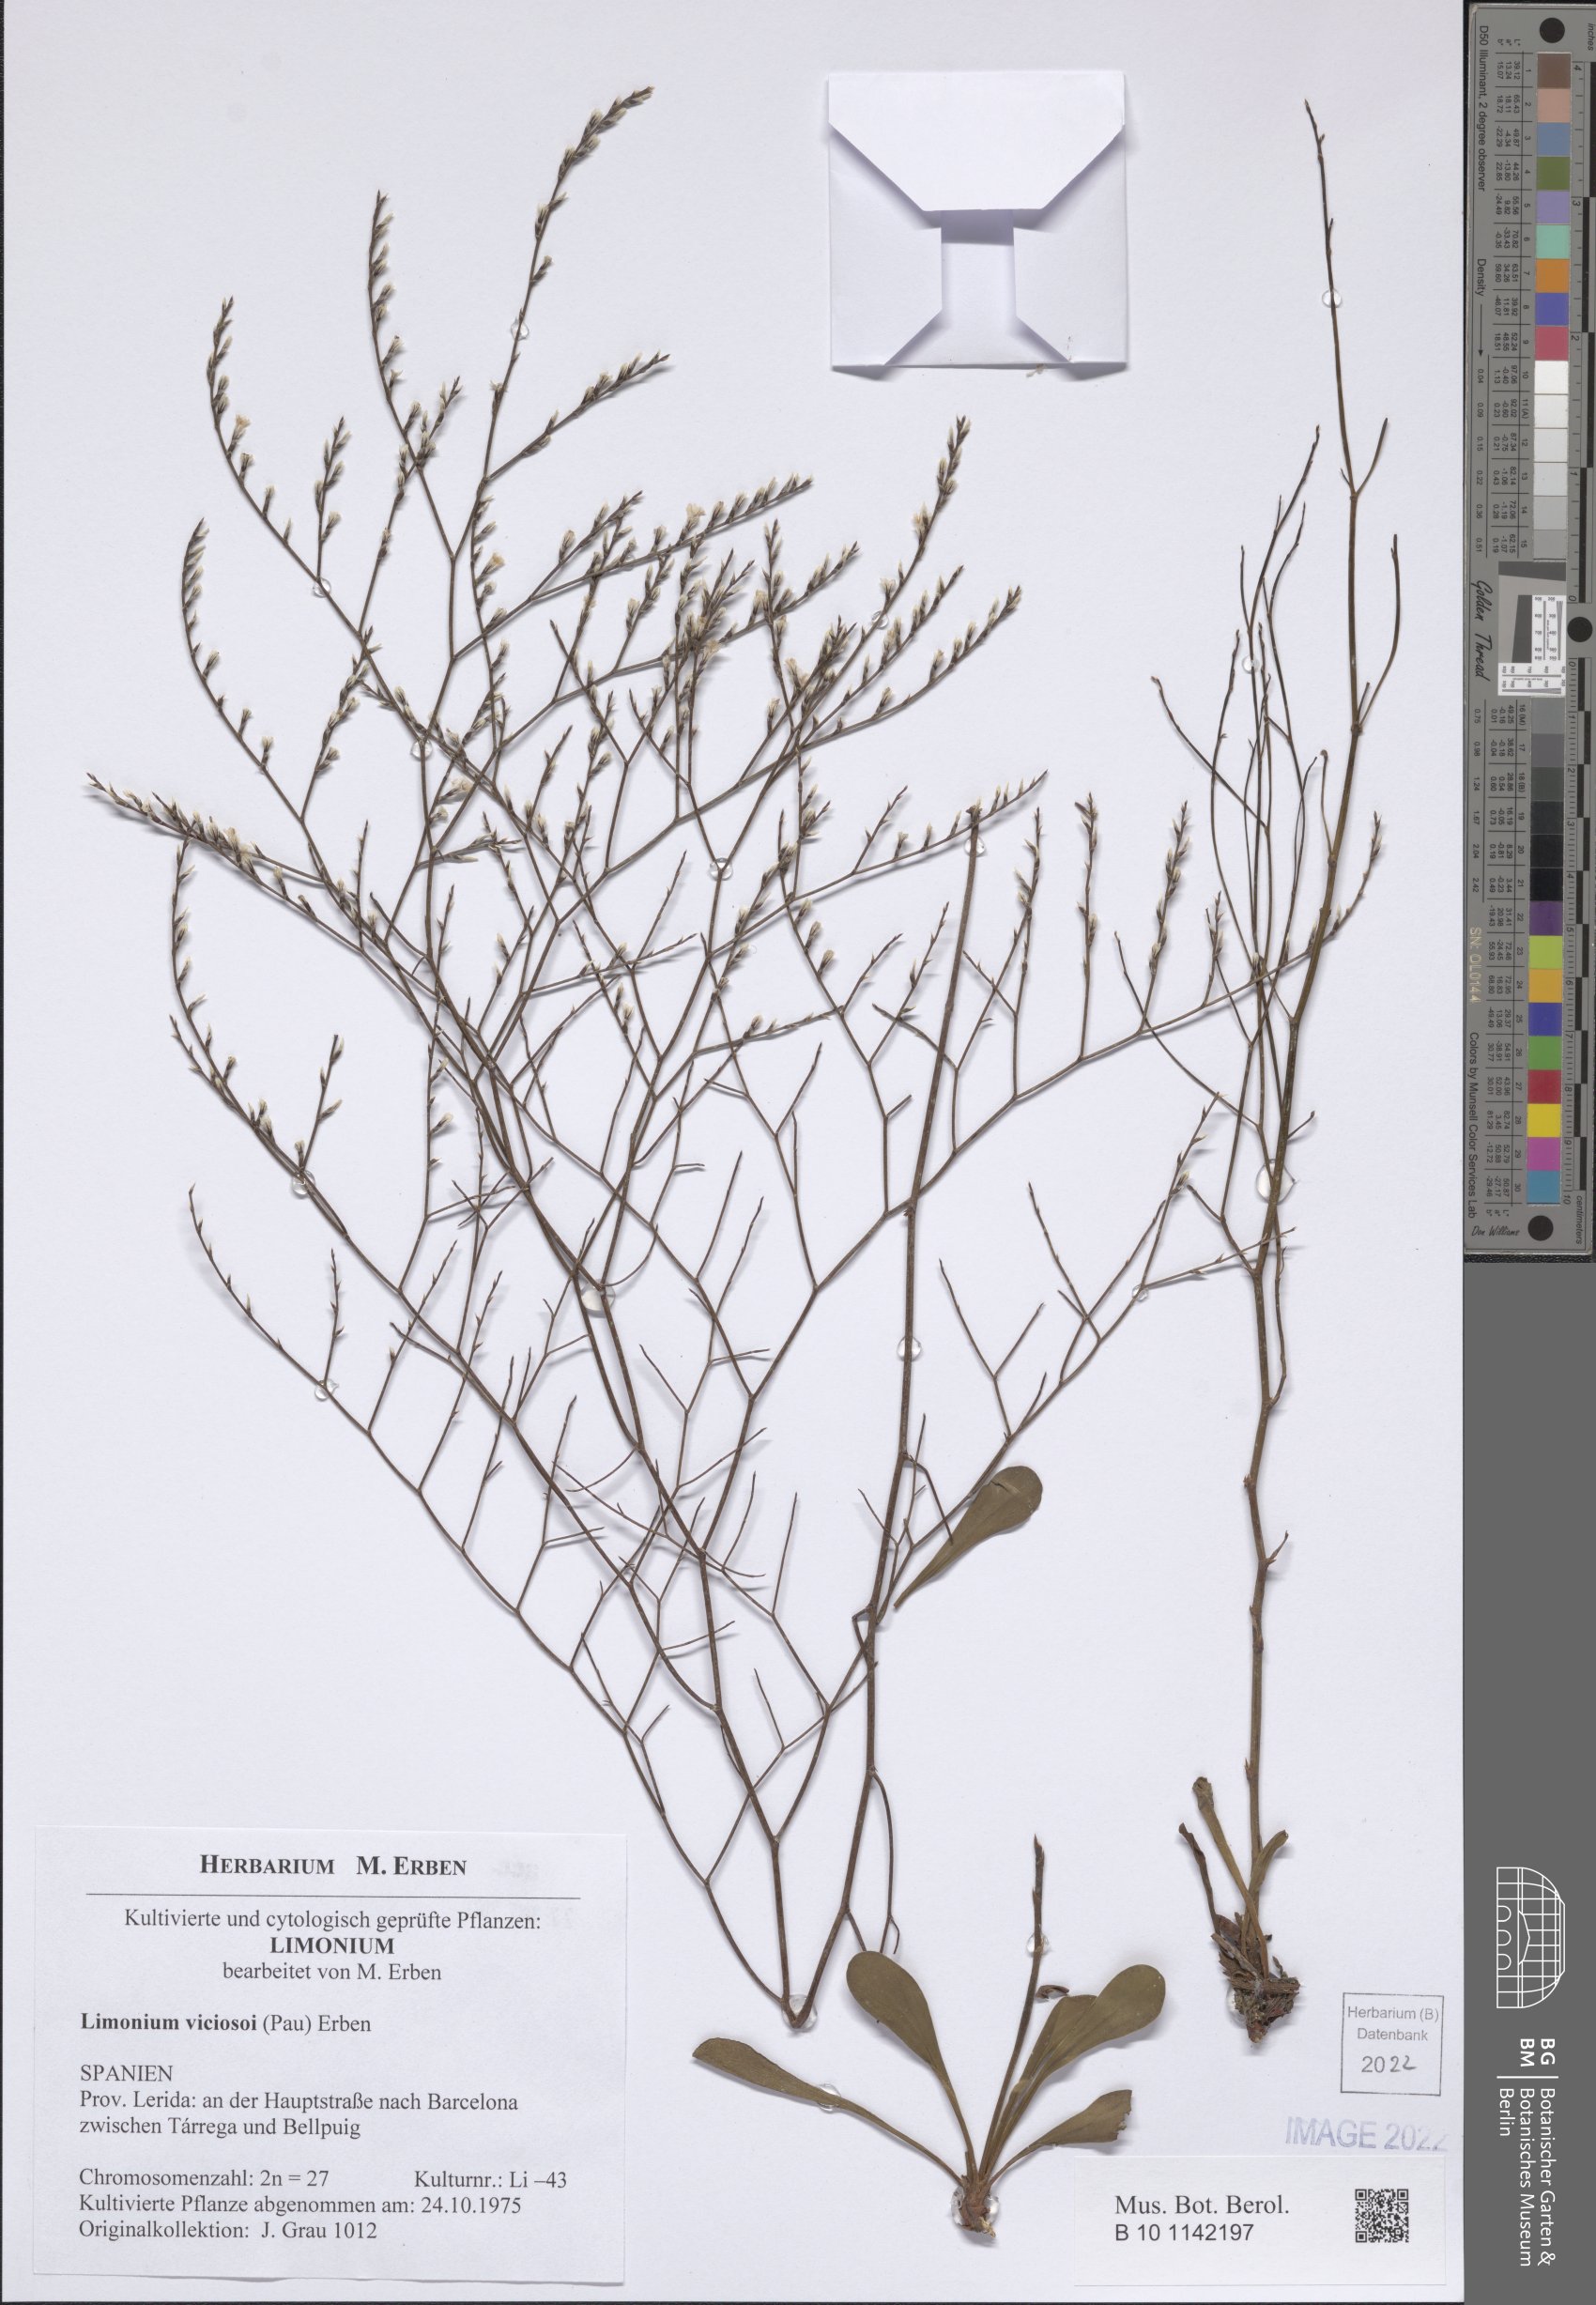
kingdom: Plantae
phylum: Tracheophyta
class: Magnoliopsida
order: Caryophyllales
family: Plumbaginaceae
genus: Limonium
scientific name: Limonium viciosoi
